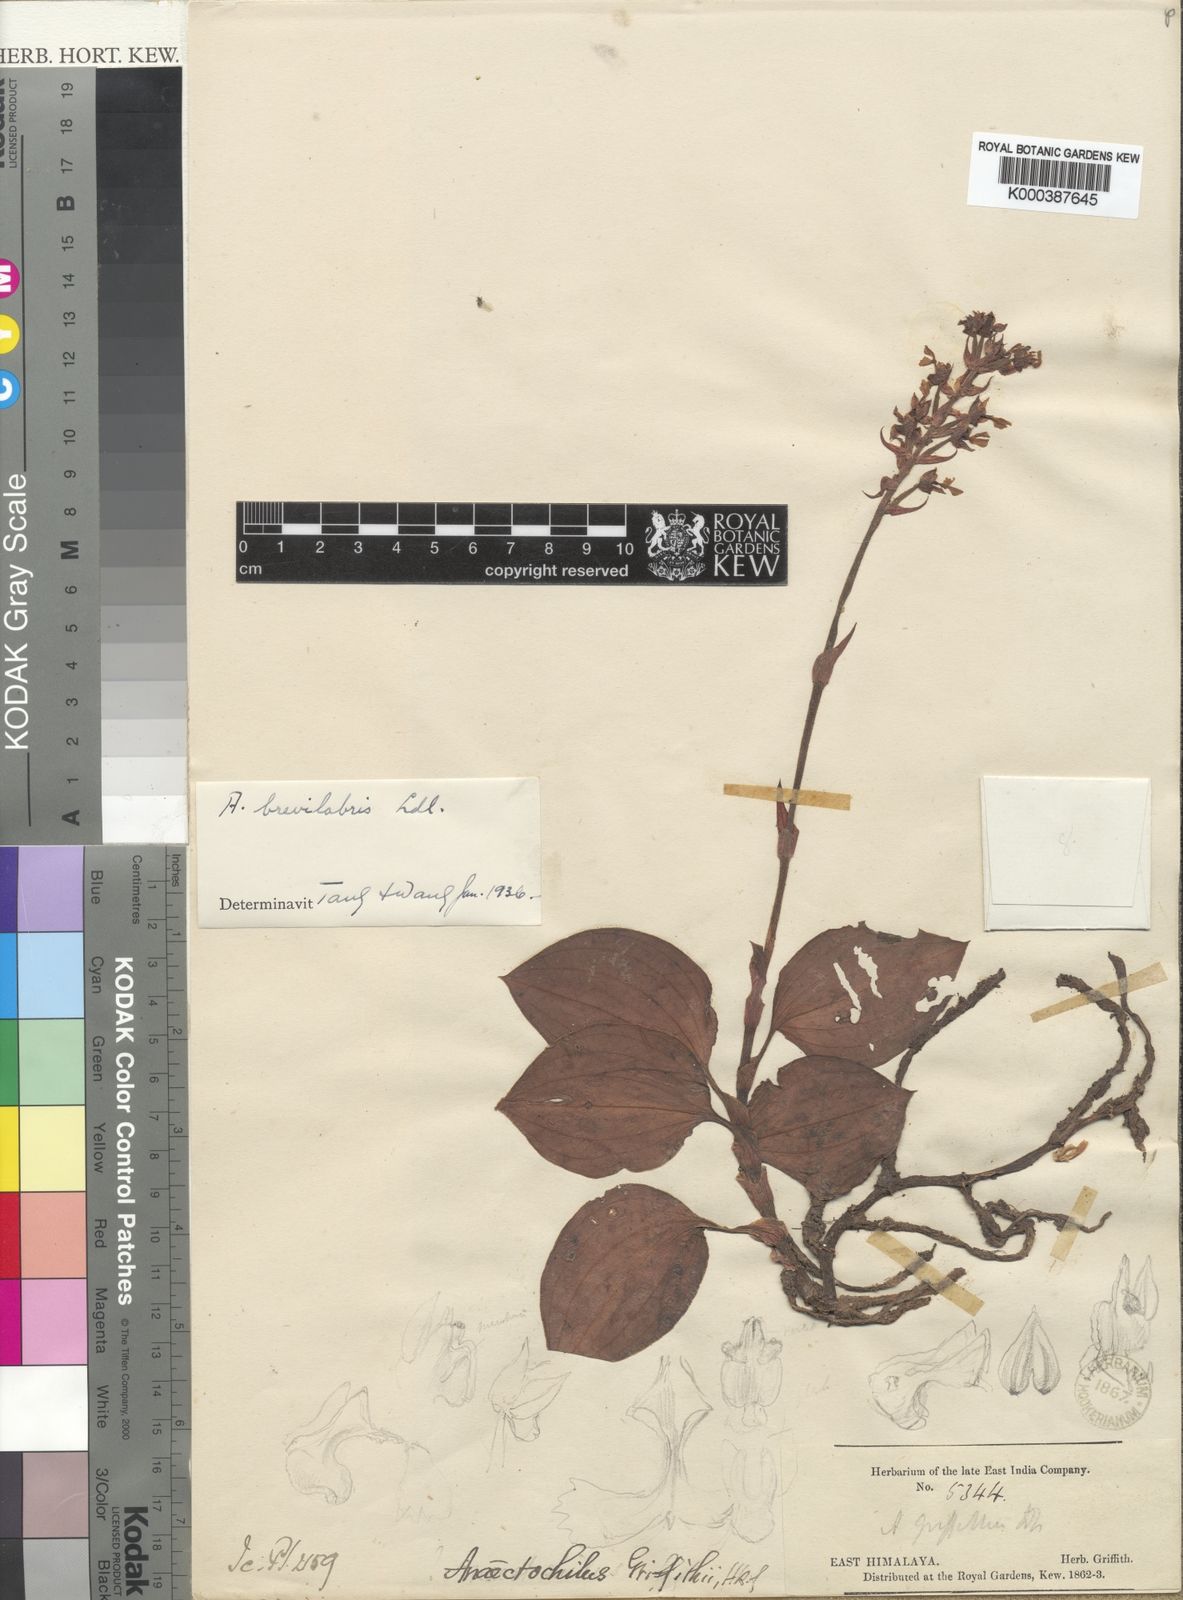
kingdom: Plantae
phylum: Tracheophyta
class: Liliopsida
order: Asparagales
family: Orchidaceae
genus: Anoectochilus
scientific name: Anoectochilus brevilabris
